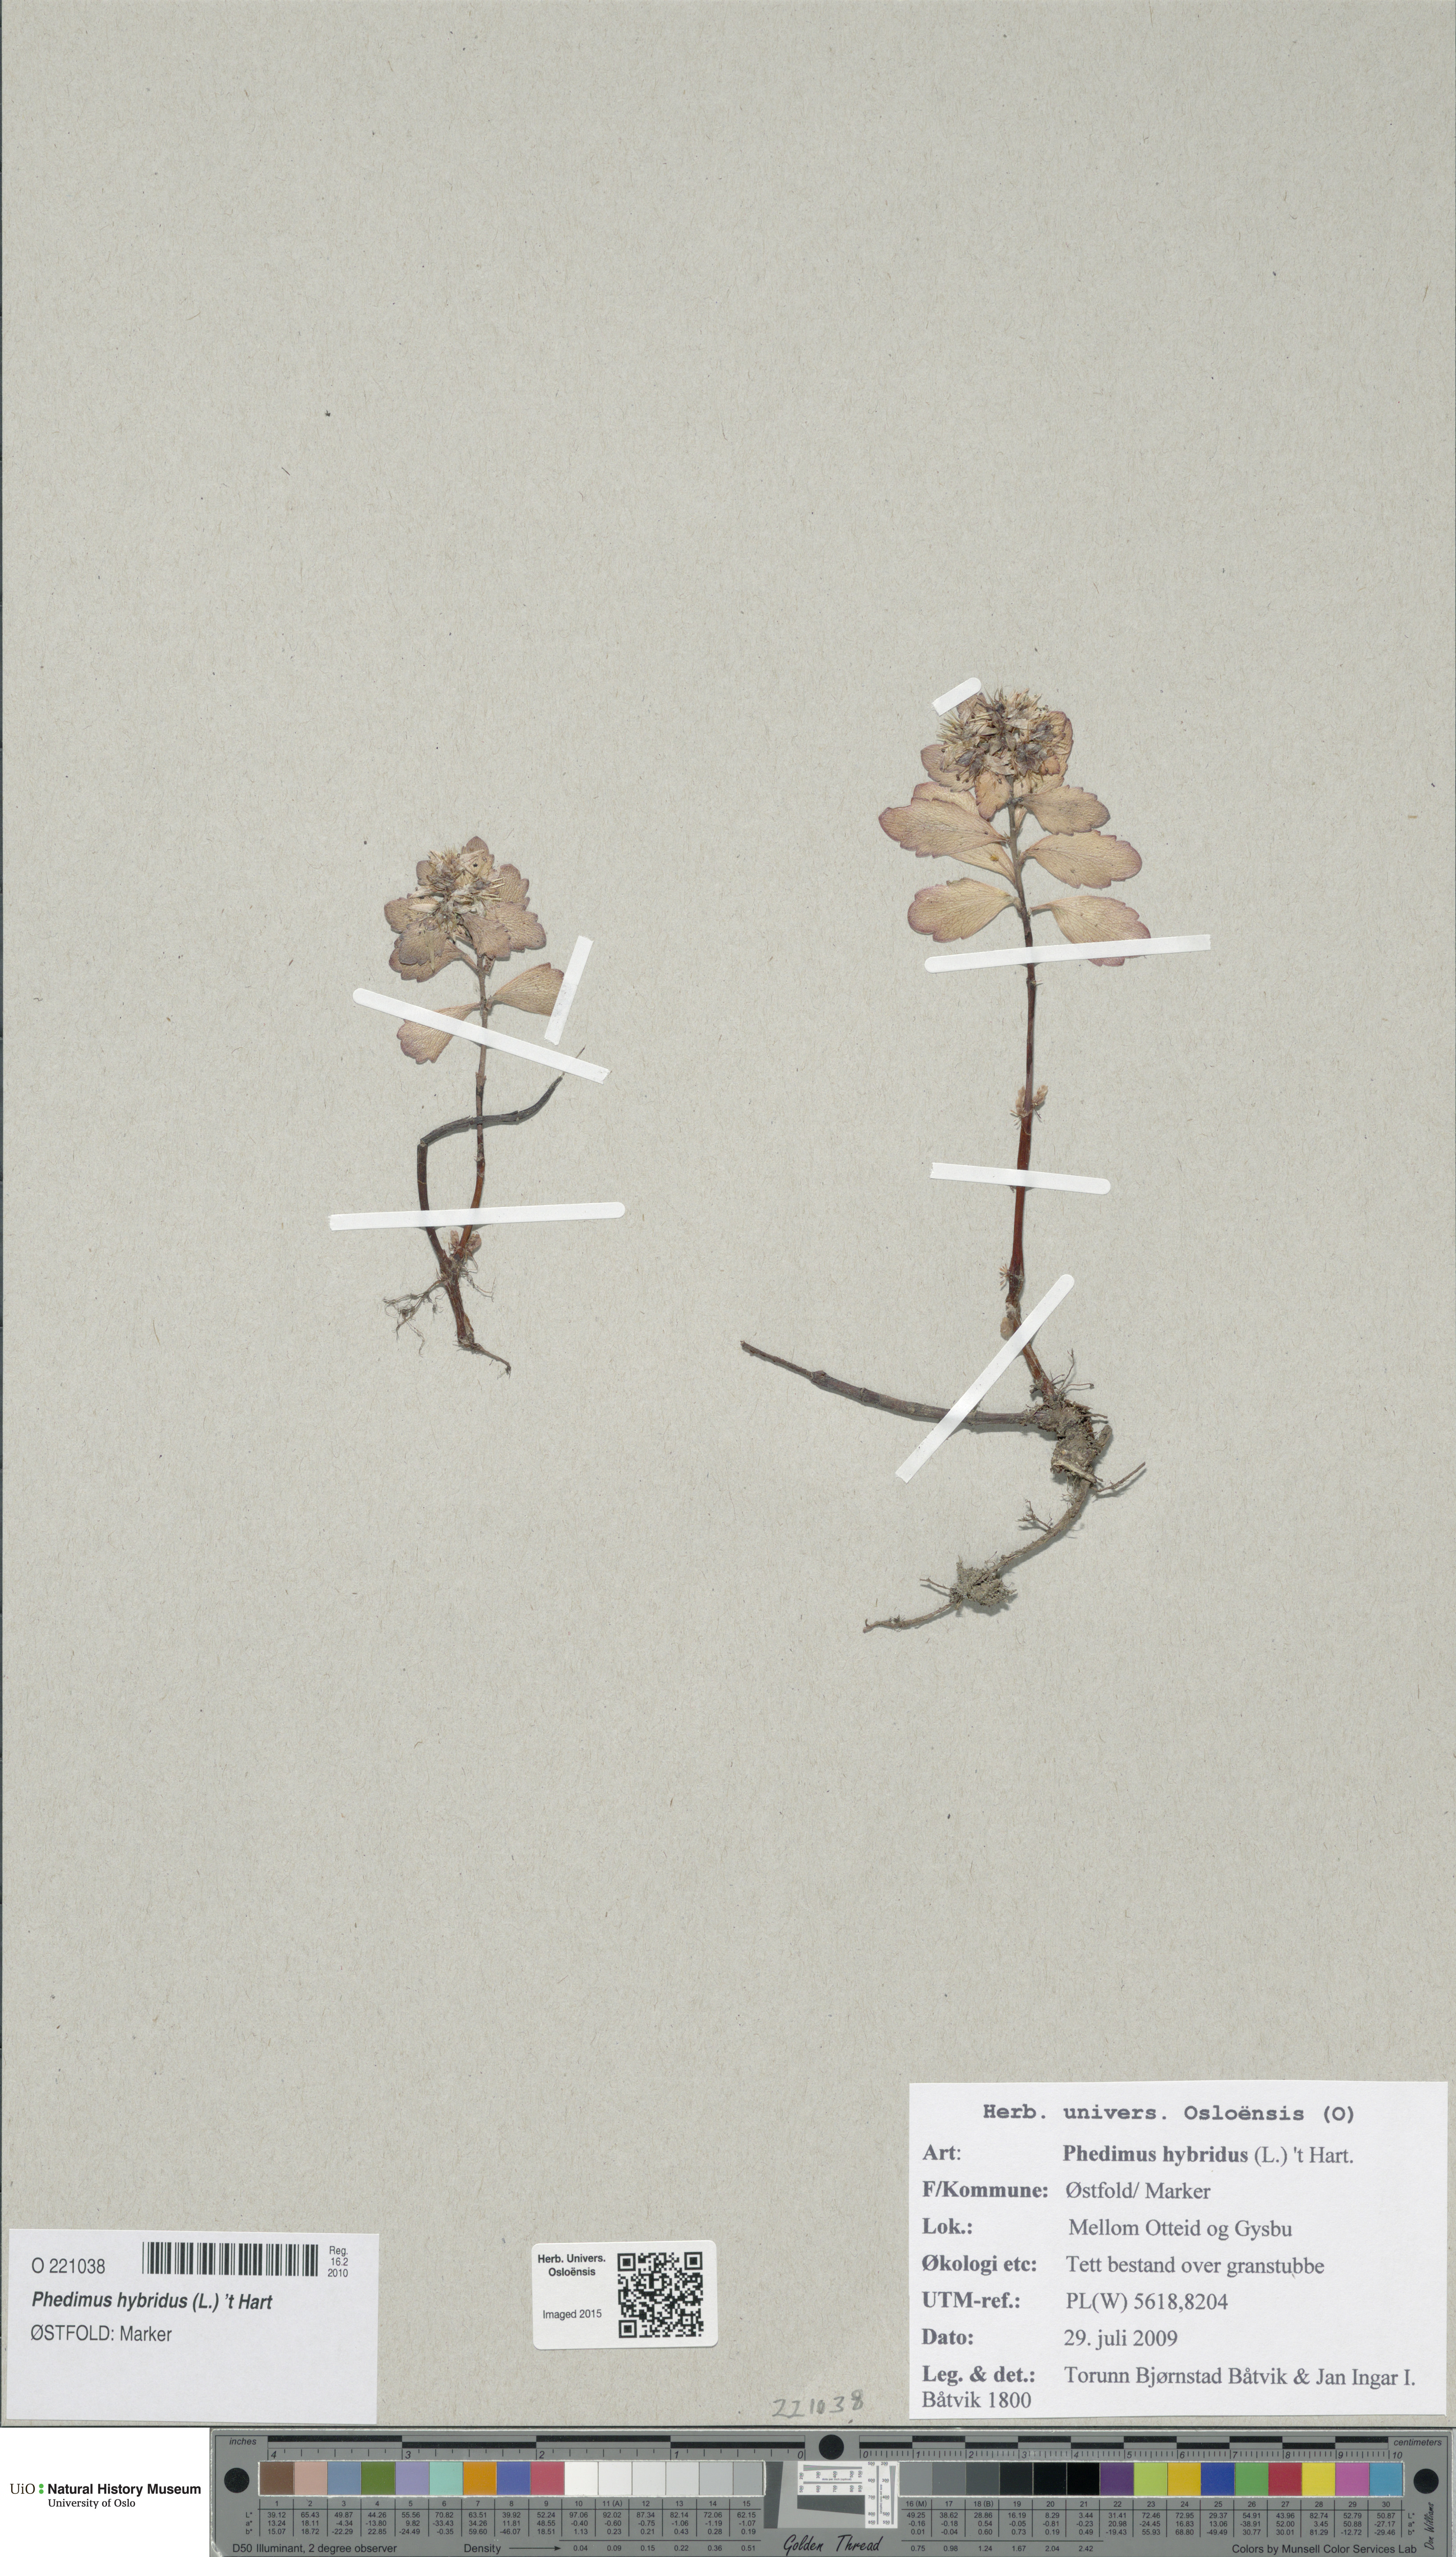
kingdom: Plantae
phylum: Tracheophyta
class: Magnoliopsida
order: Saxifragales
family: Crassulaceae
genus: Phedimus
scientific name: Phedimus hybridus
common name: Hybrid stonecrop
